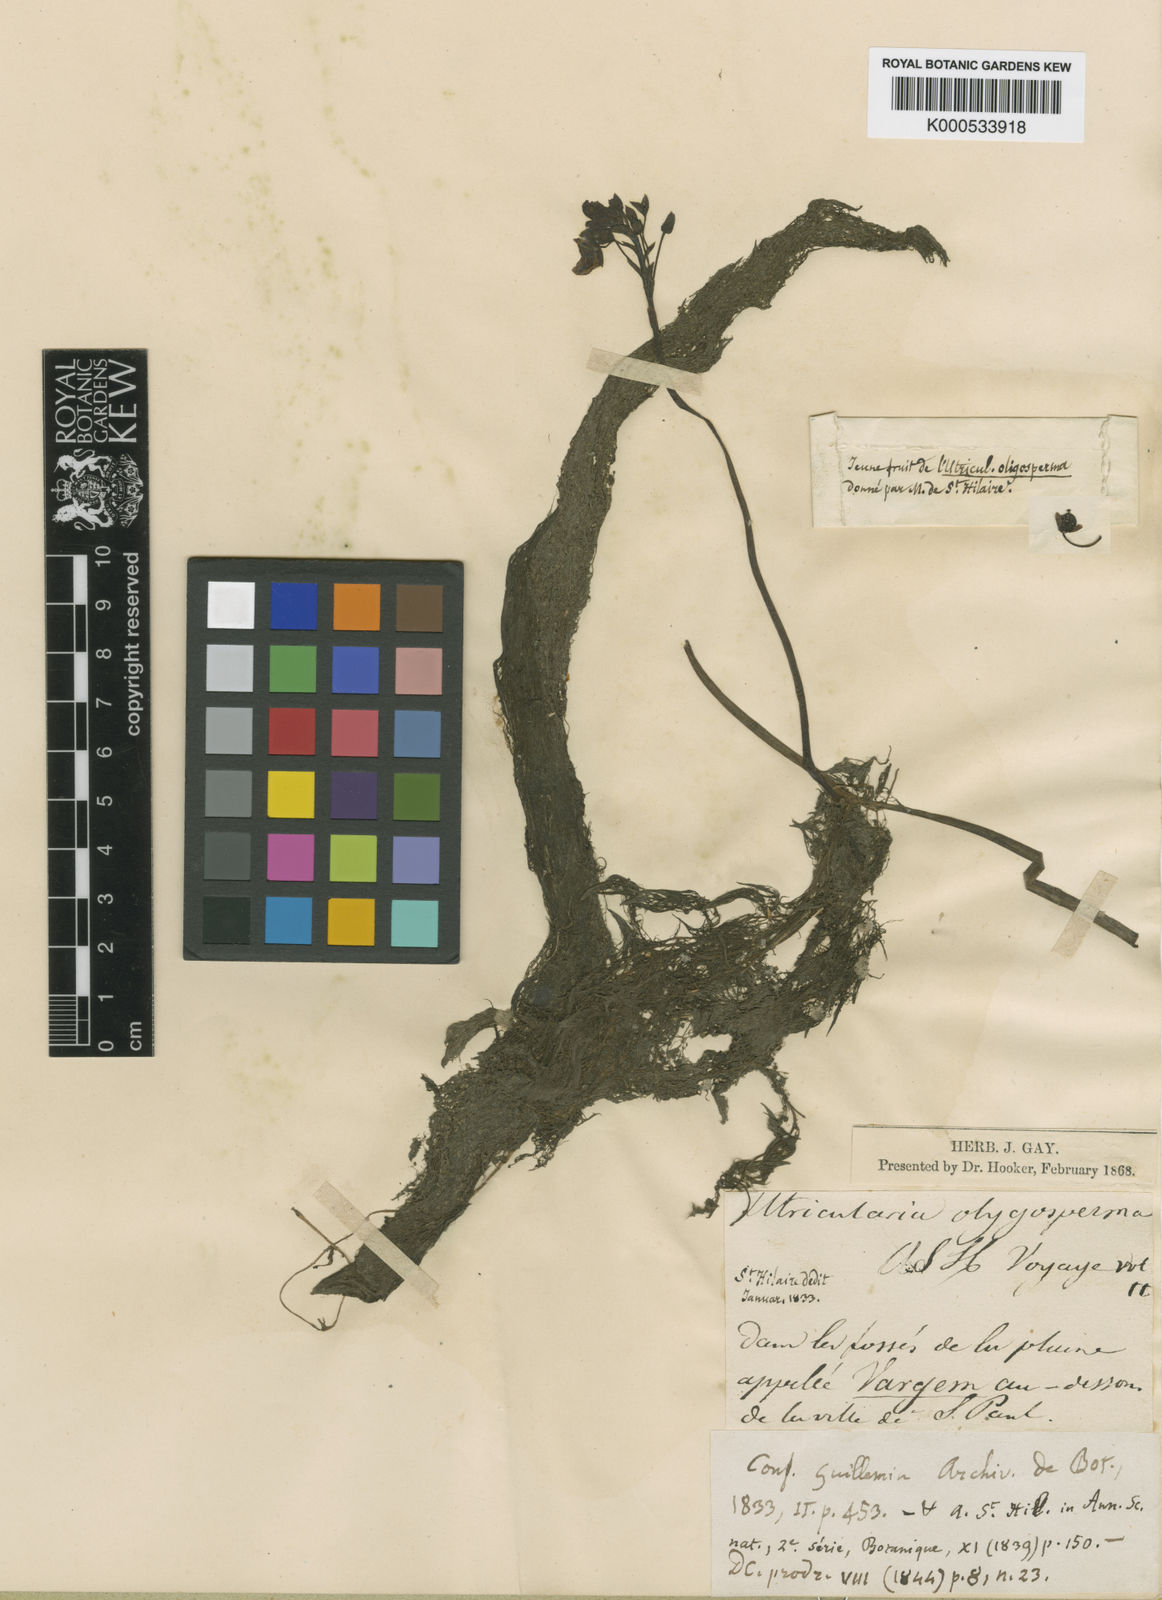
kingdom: Plantae
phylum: Tracheophyta
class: Magnoliopsida
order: Lamiales
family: Lentibulariaceae
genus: Utricularia
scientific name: Utricularia foliosa
